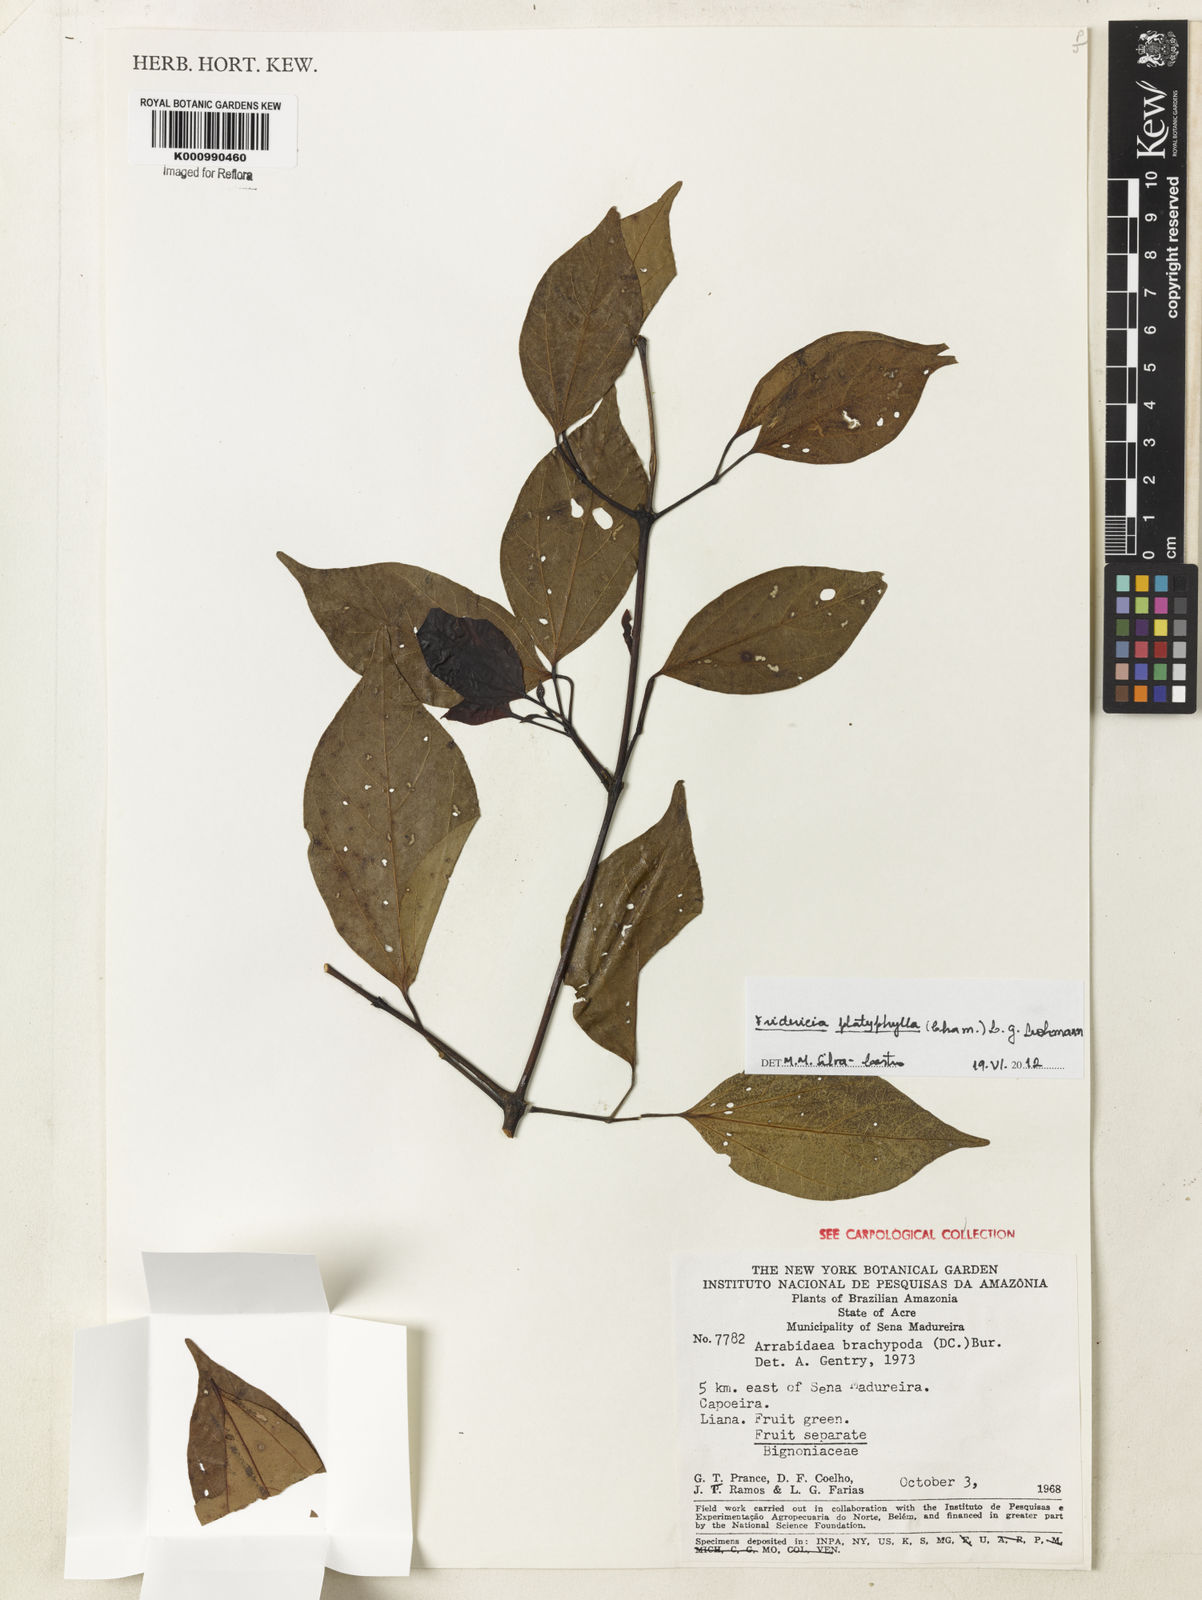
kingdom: Plantae
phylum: Tracheophyta
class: Magnoliopsida
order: Lamiales
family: Bignoniaceae
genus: Fridericia
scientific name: Fridericia platyphylla
